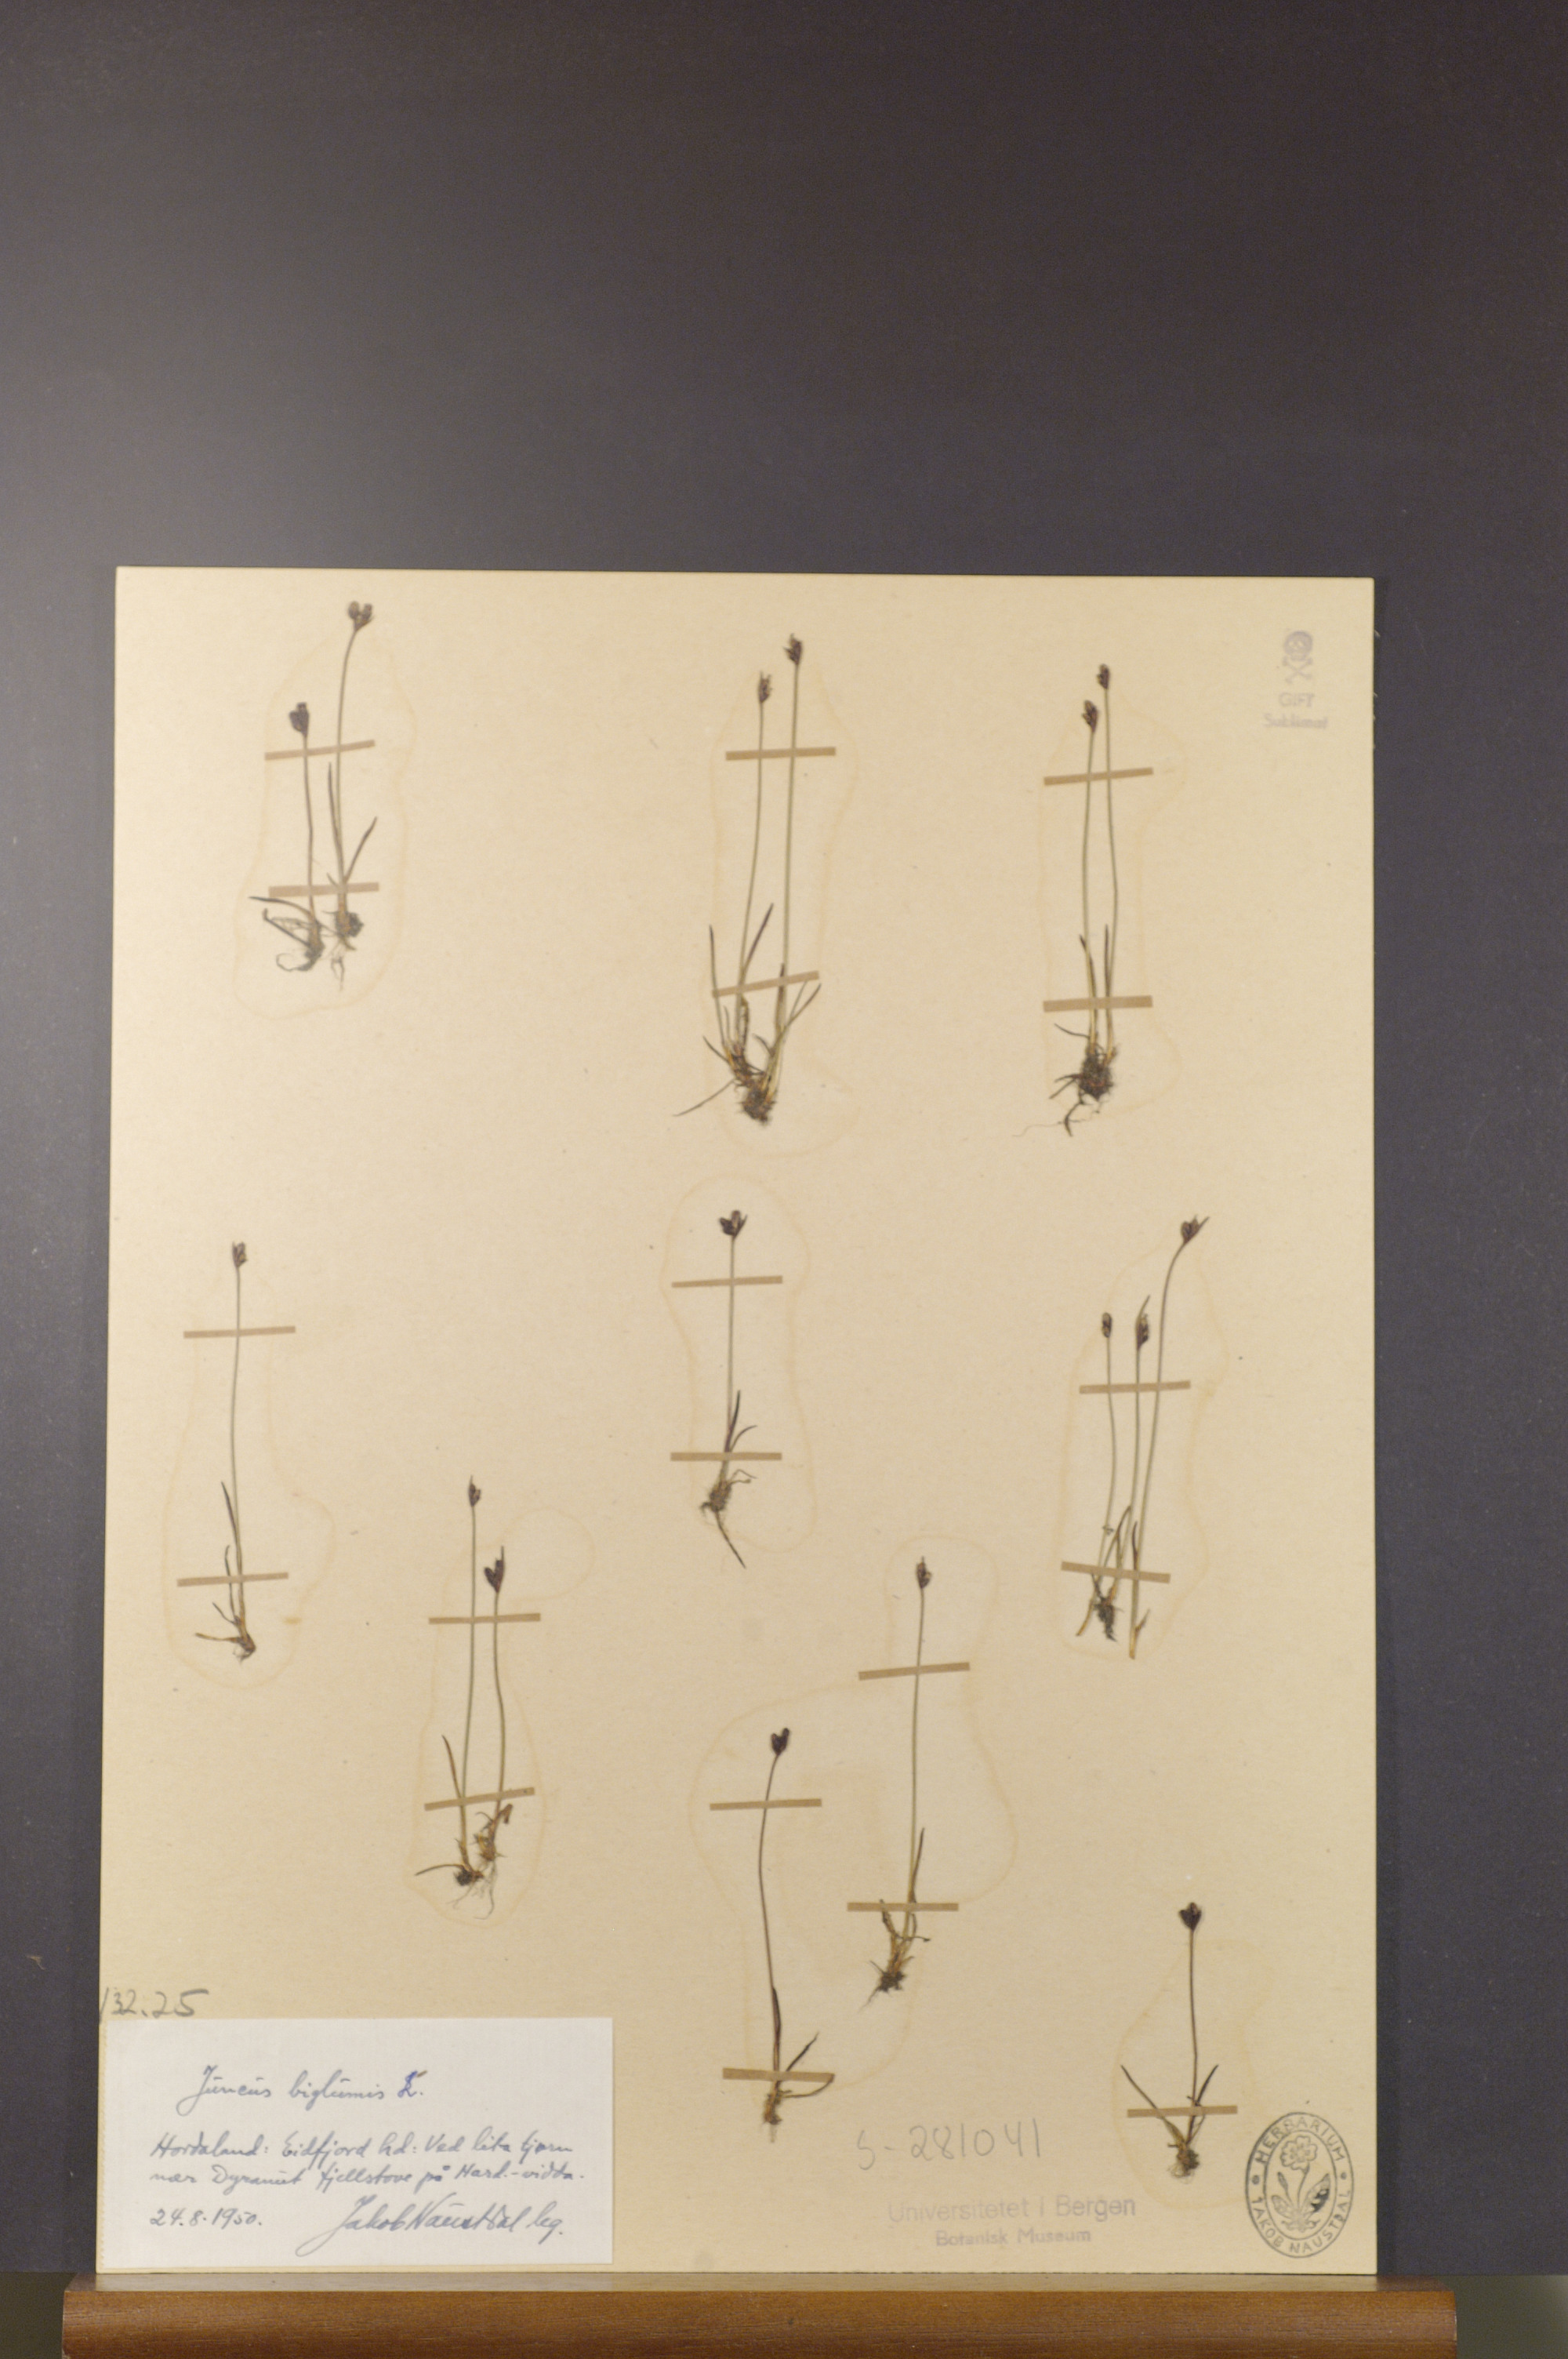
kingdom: Plantae
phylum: Tracheophyta
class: Liliopsida
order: Poales
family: Juncaceae
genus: Juncus
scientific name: Juncus biglumis
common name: Two-flowered rush
